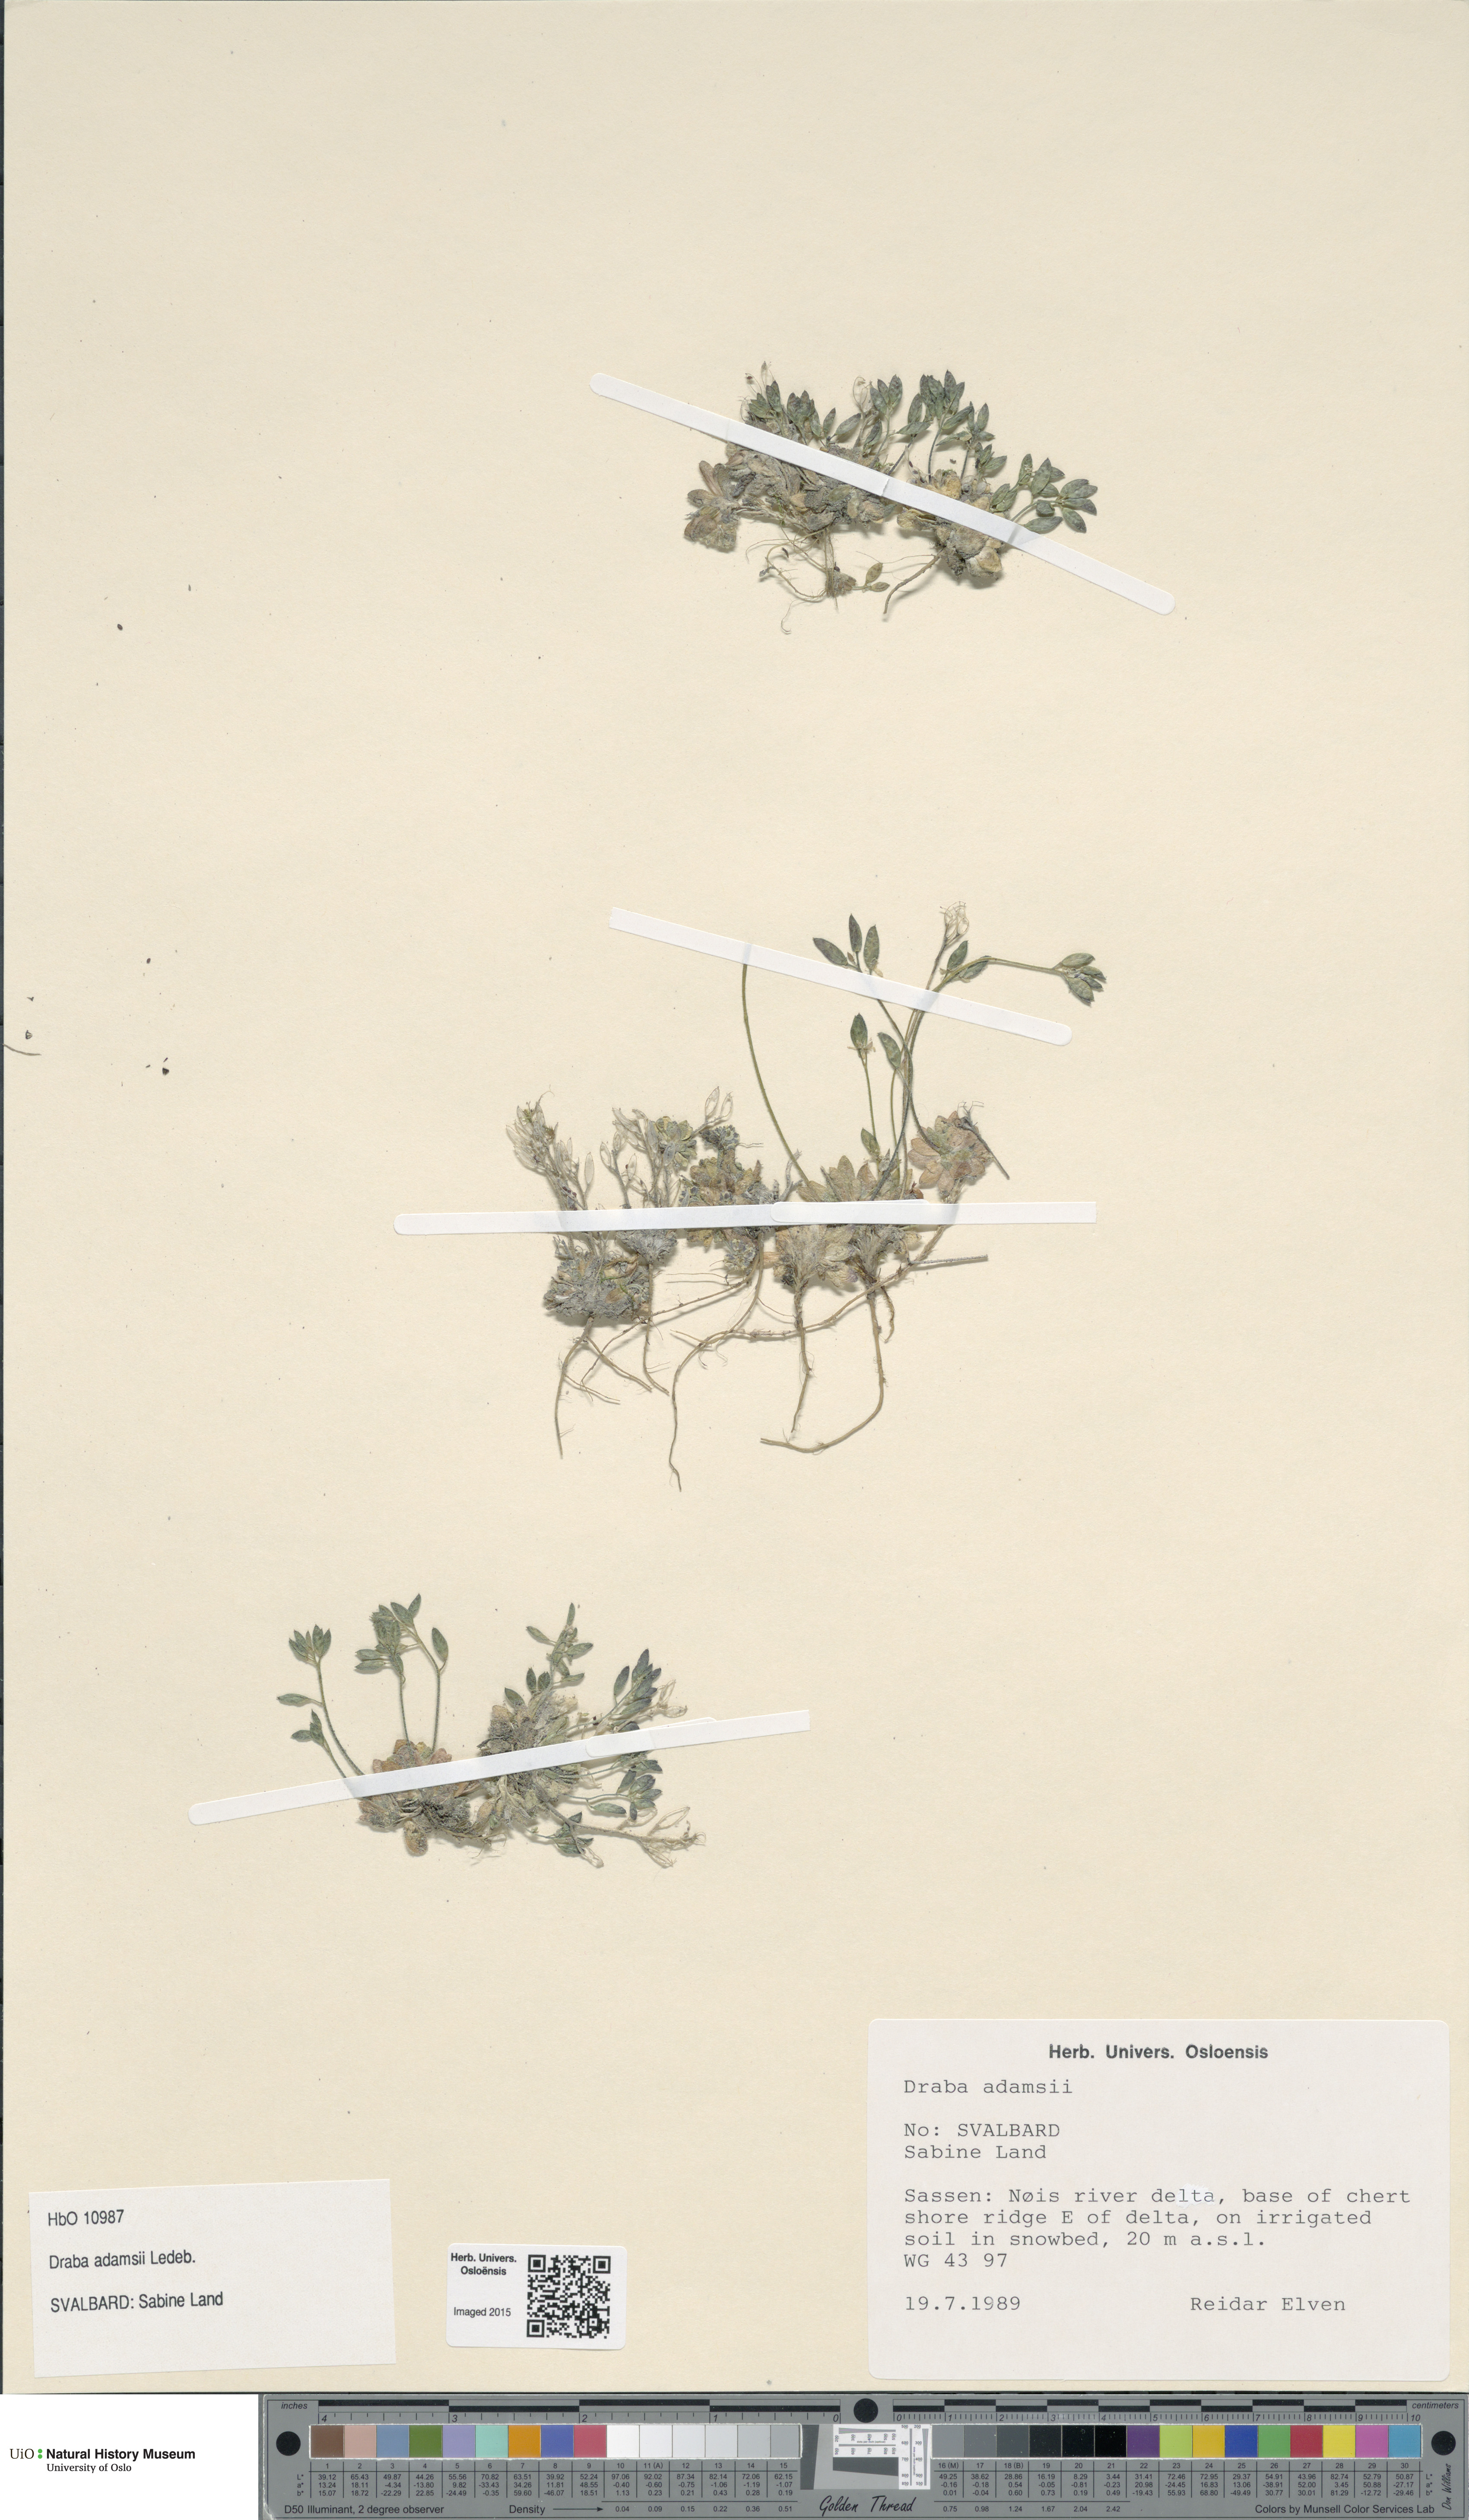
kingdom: Plantae
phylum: Tracheophyta
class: Magnoliopsida
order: Brassicales
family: Brassicaceae
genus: Draba
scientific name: Draba pauciflora
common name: Few-flowered draba
